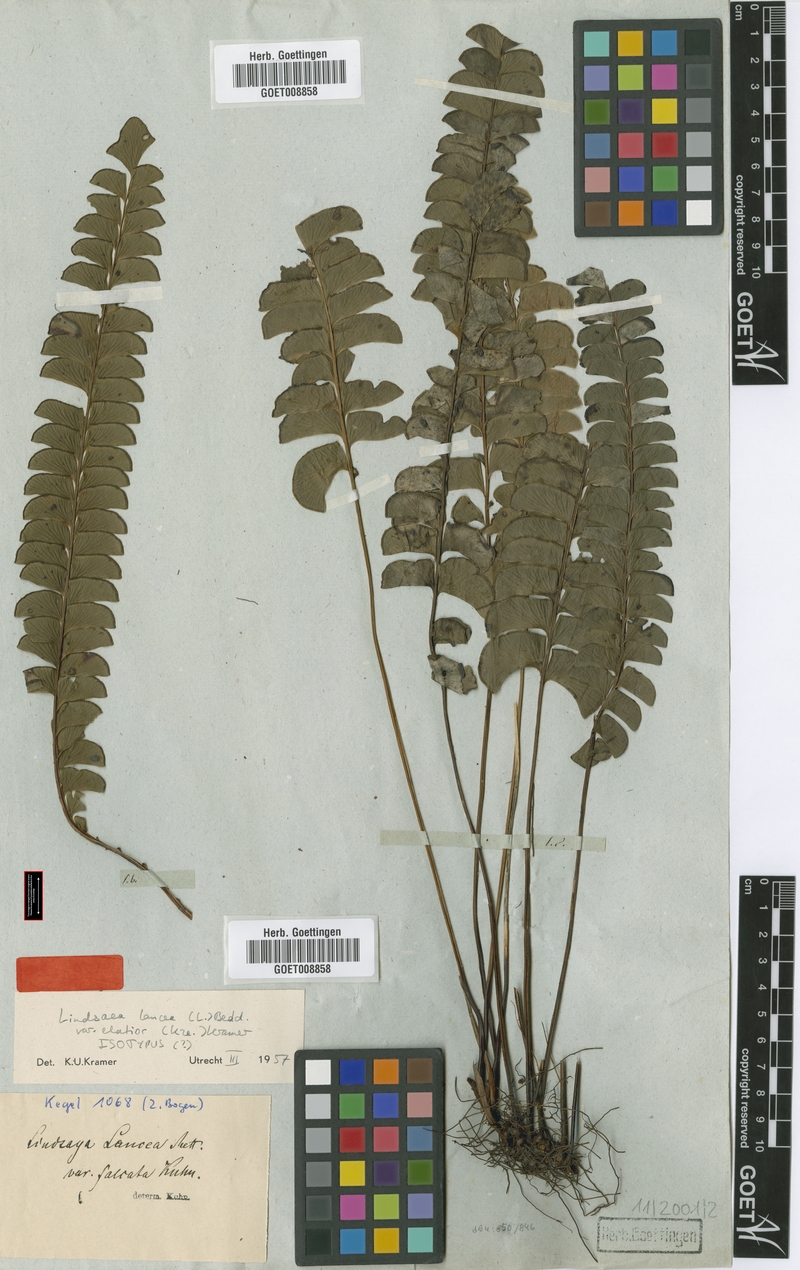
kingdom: Plantae
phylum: Tracheophyta
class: Polypodiopsida
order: Polypodiales
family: Lindsaeaceae
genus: Lindsaea
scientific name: Lindsaea elatior
